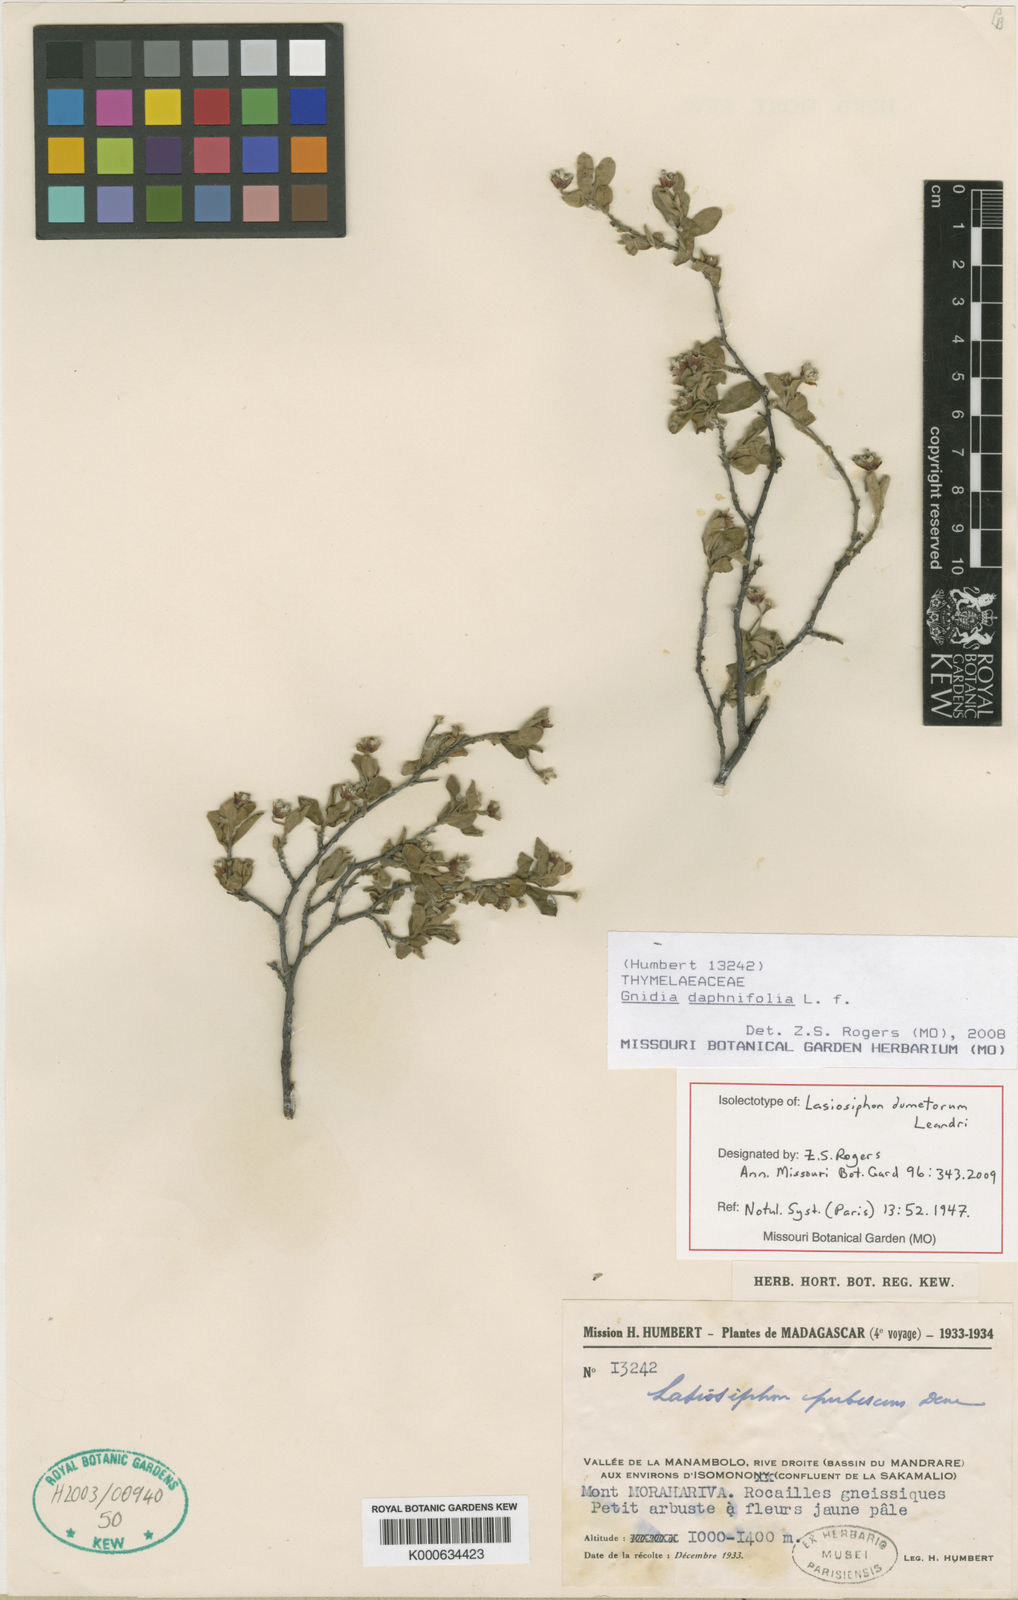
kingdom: Plantae
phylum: Tracheophyta
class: Magnoliopsida
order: Malvales
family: Thymelaeaceae
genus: Gnidia
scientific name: Gnidia daphnifolia
